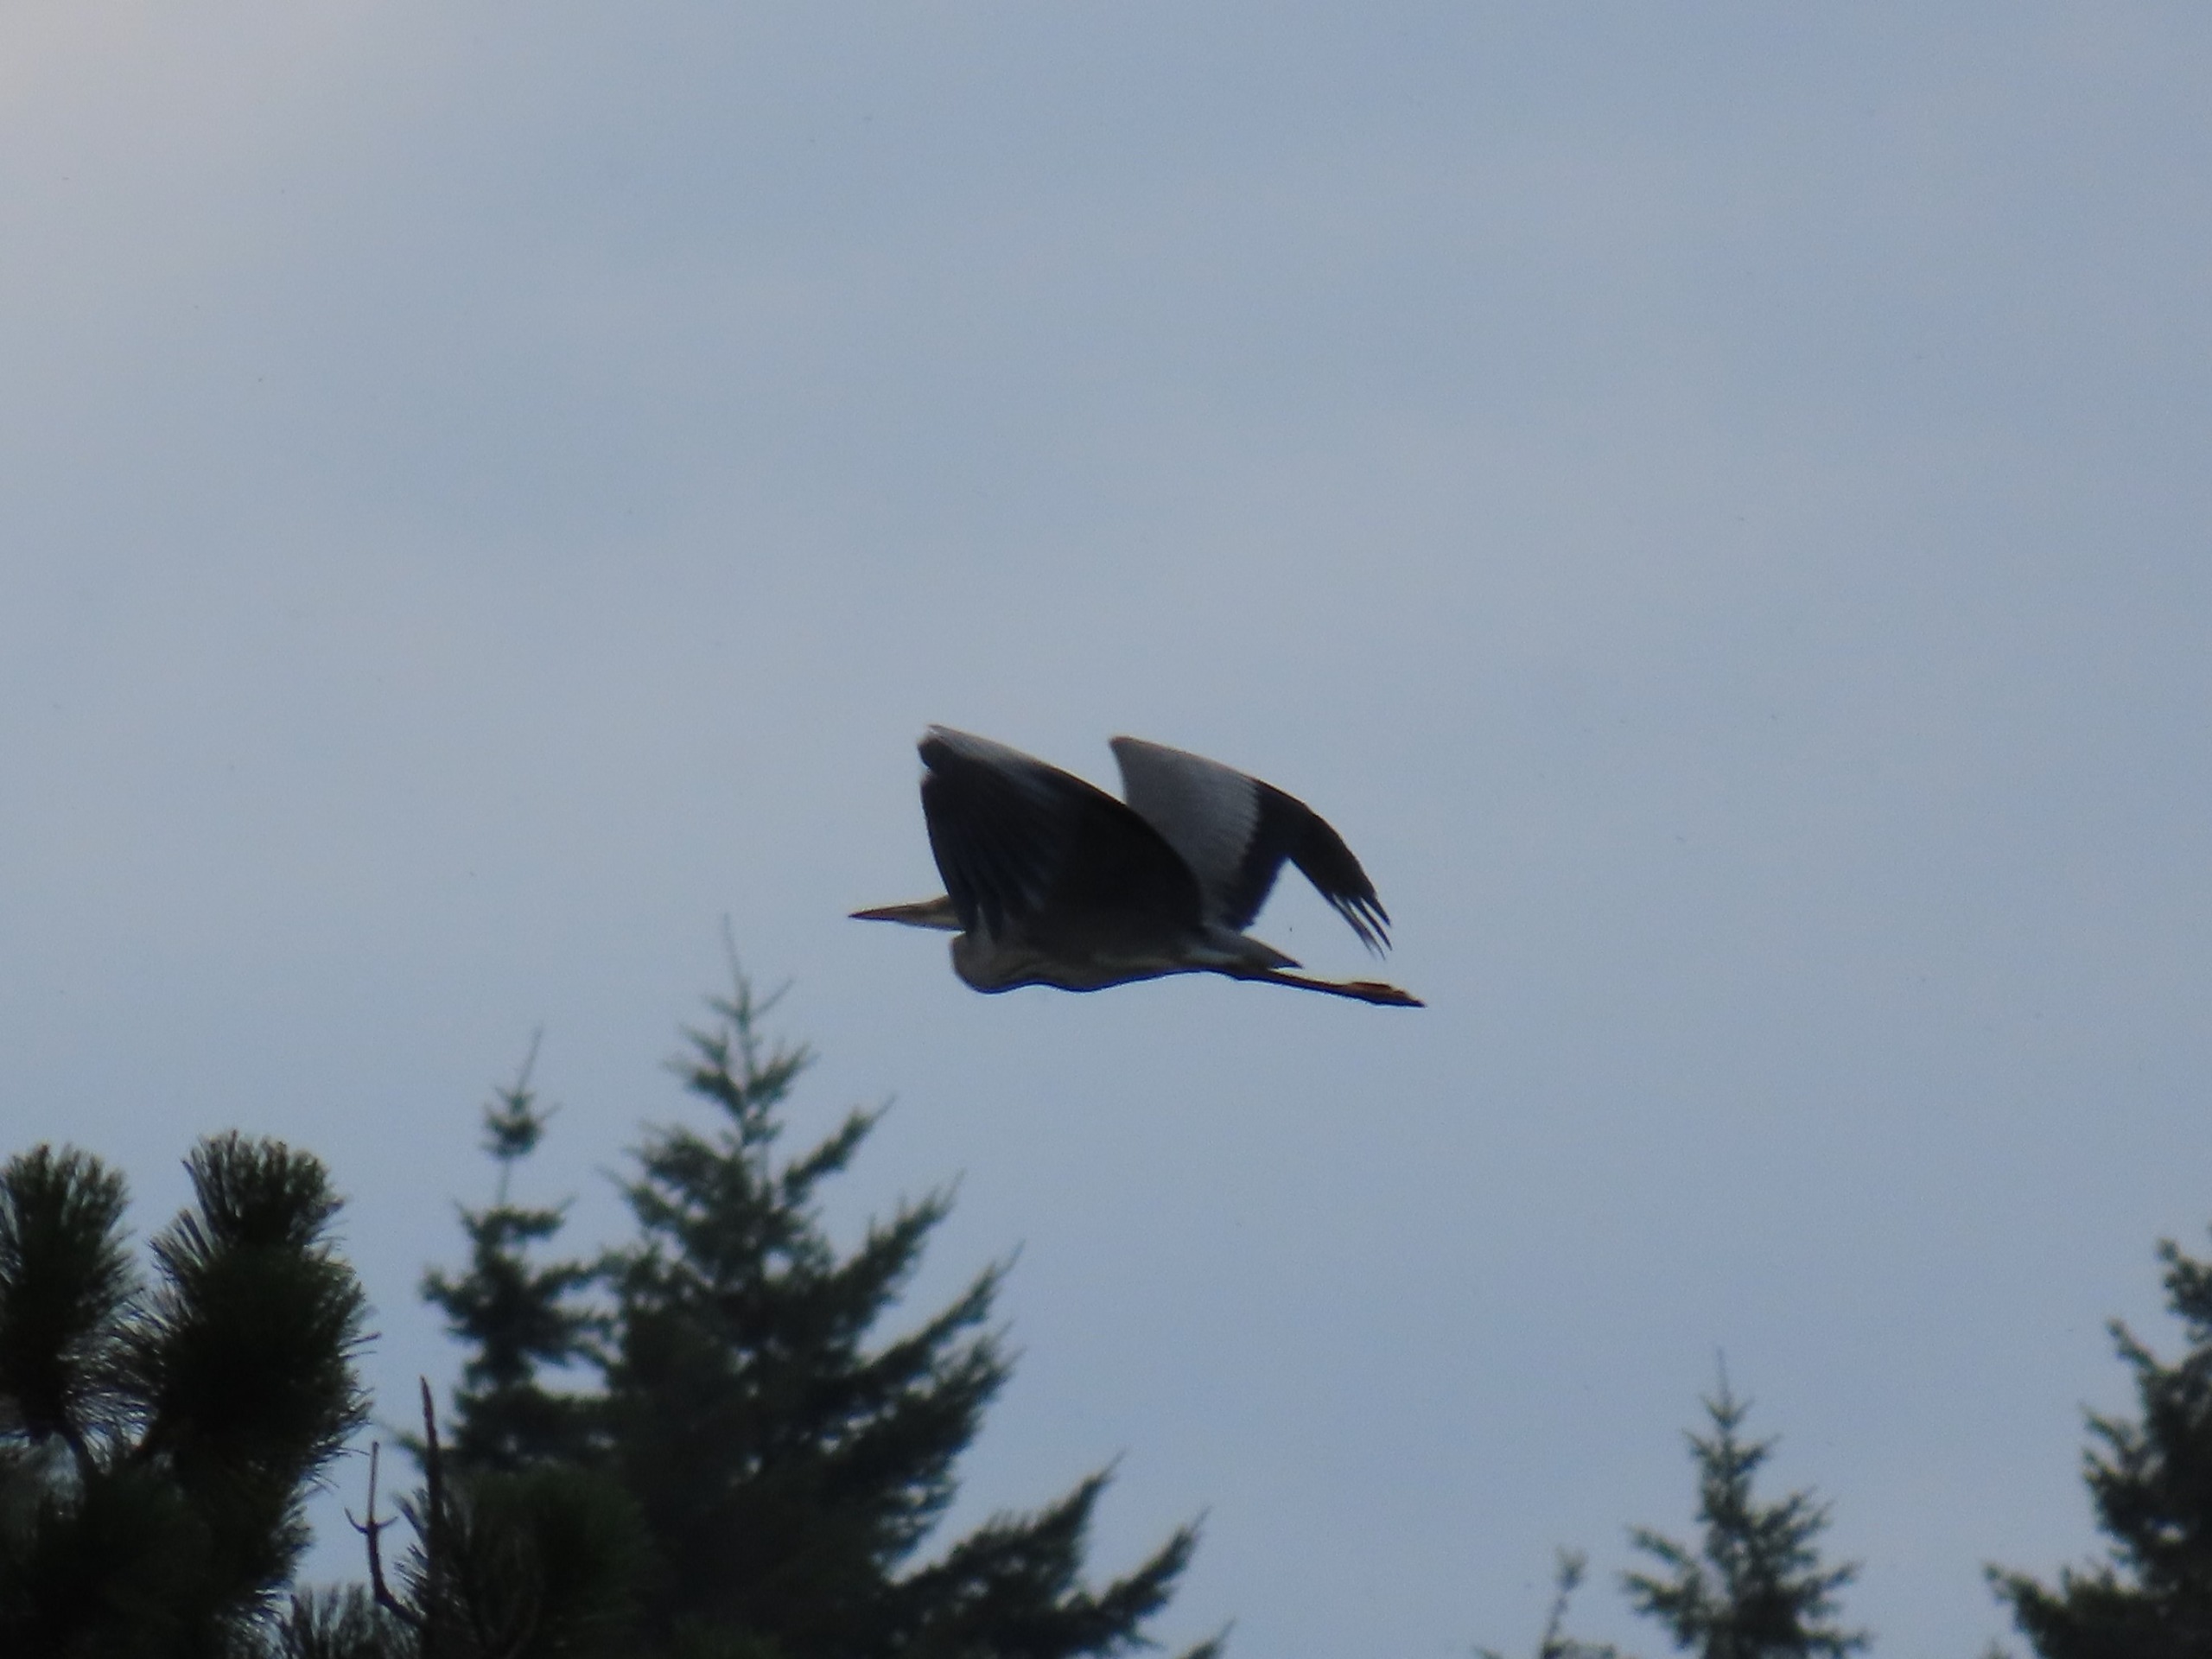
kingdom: Animalia
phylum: Chordata
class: Aves
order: Pelecaniformes
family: Ardeidae
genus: Ardea
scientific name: Ardea cinerea
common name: Fiskehejre
